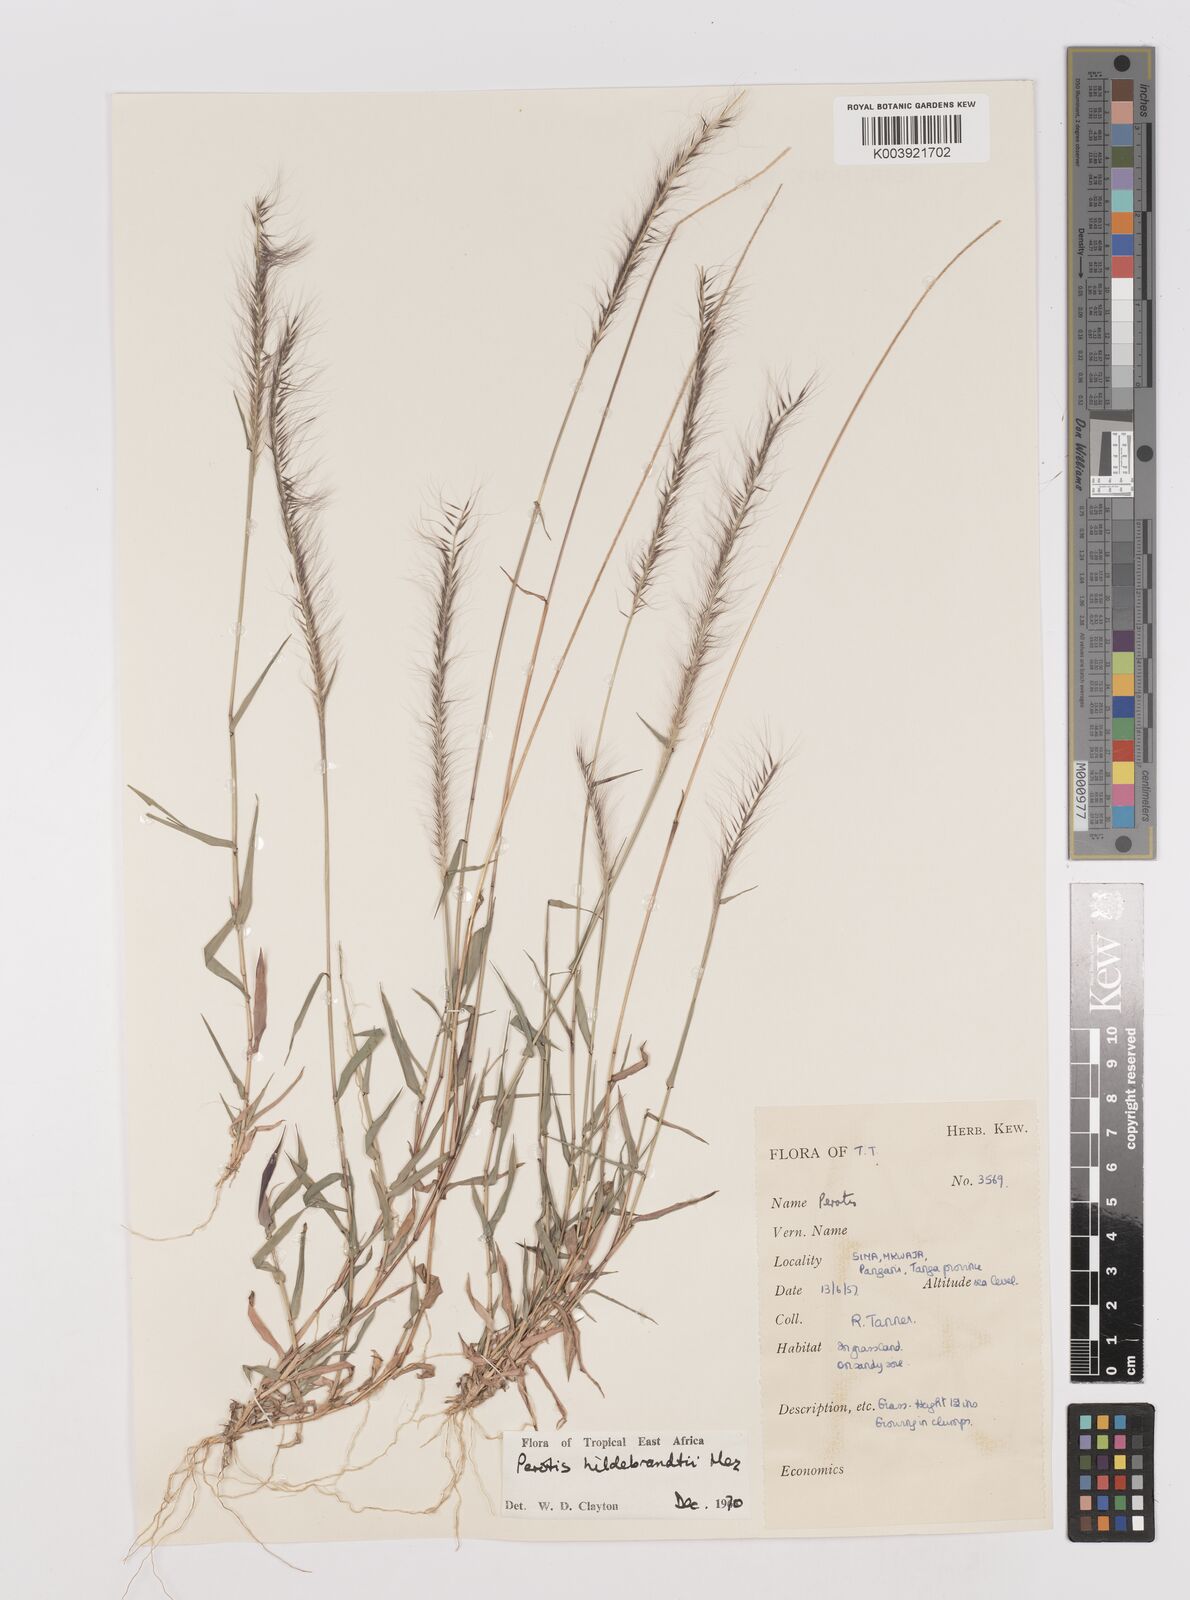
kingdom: Plantae
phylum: Tracheophyta
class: Liliopsida
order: Poales
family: Poaceae
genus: Perotis
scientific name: Perotis hildebrandtii
